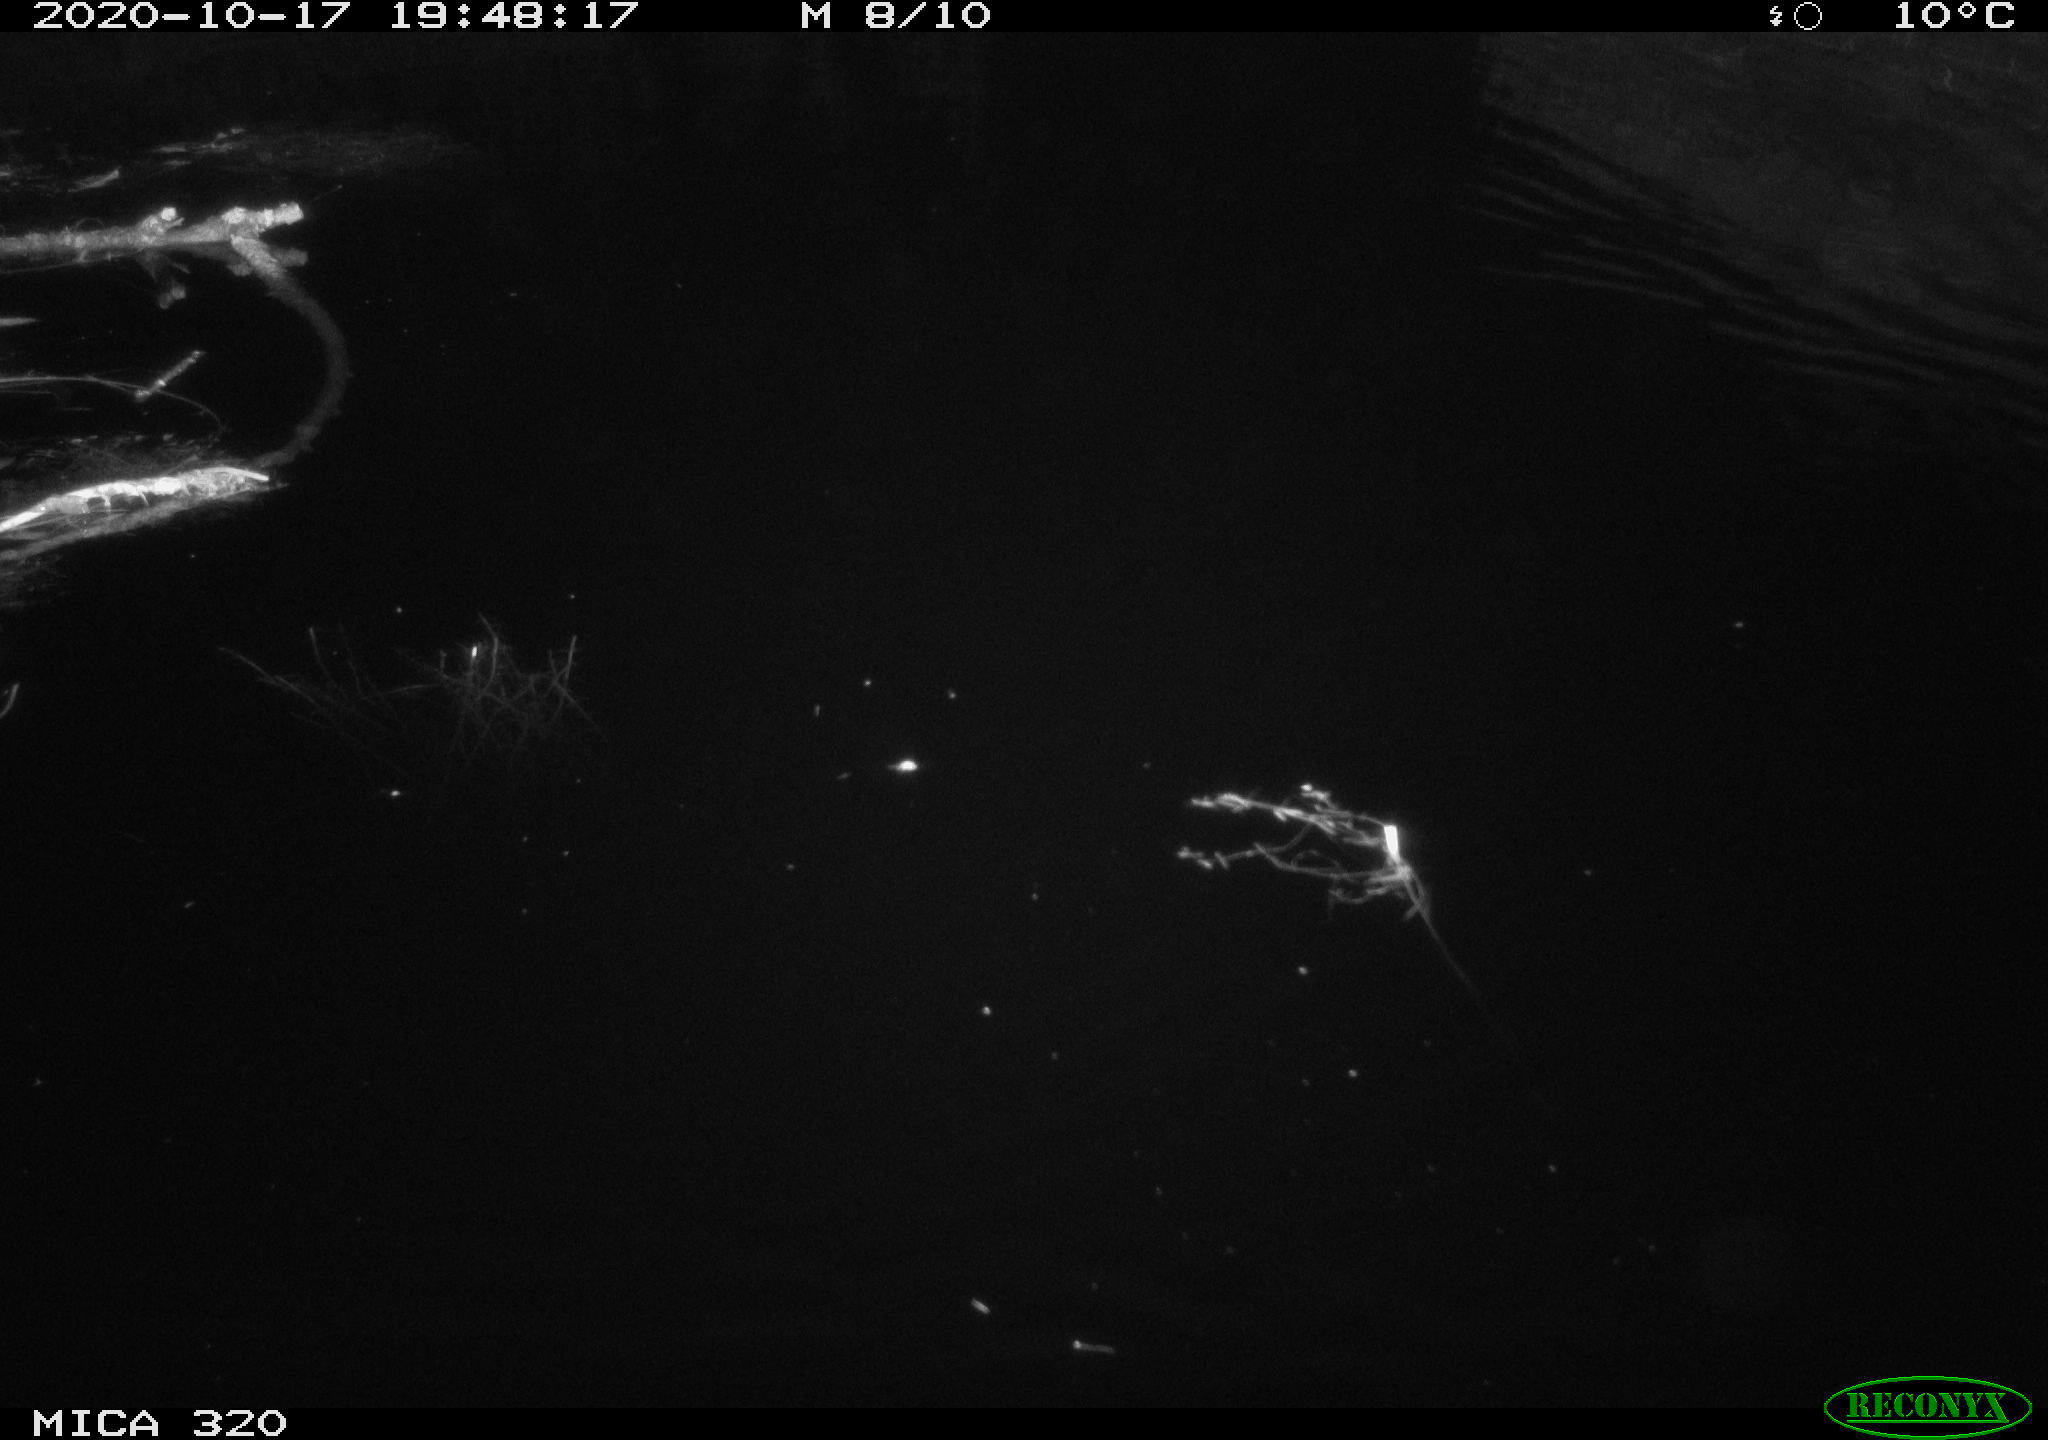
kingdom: Animalia
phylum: Chordata
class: Aves
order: Gruiformes
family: Rallidae
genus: Gallinula
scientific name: Gallinula chloropus
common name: Common moorhen
